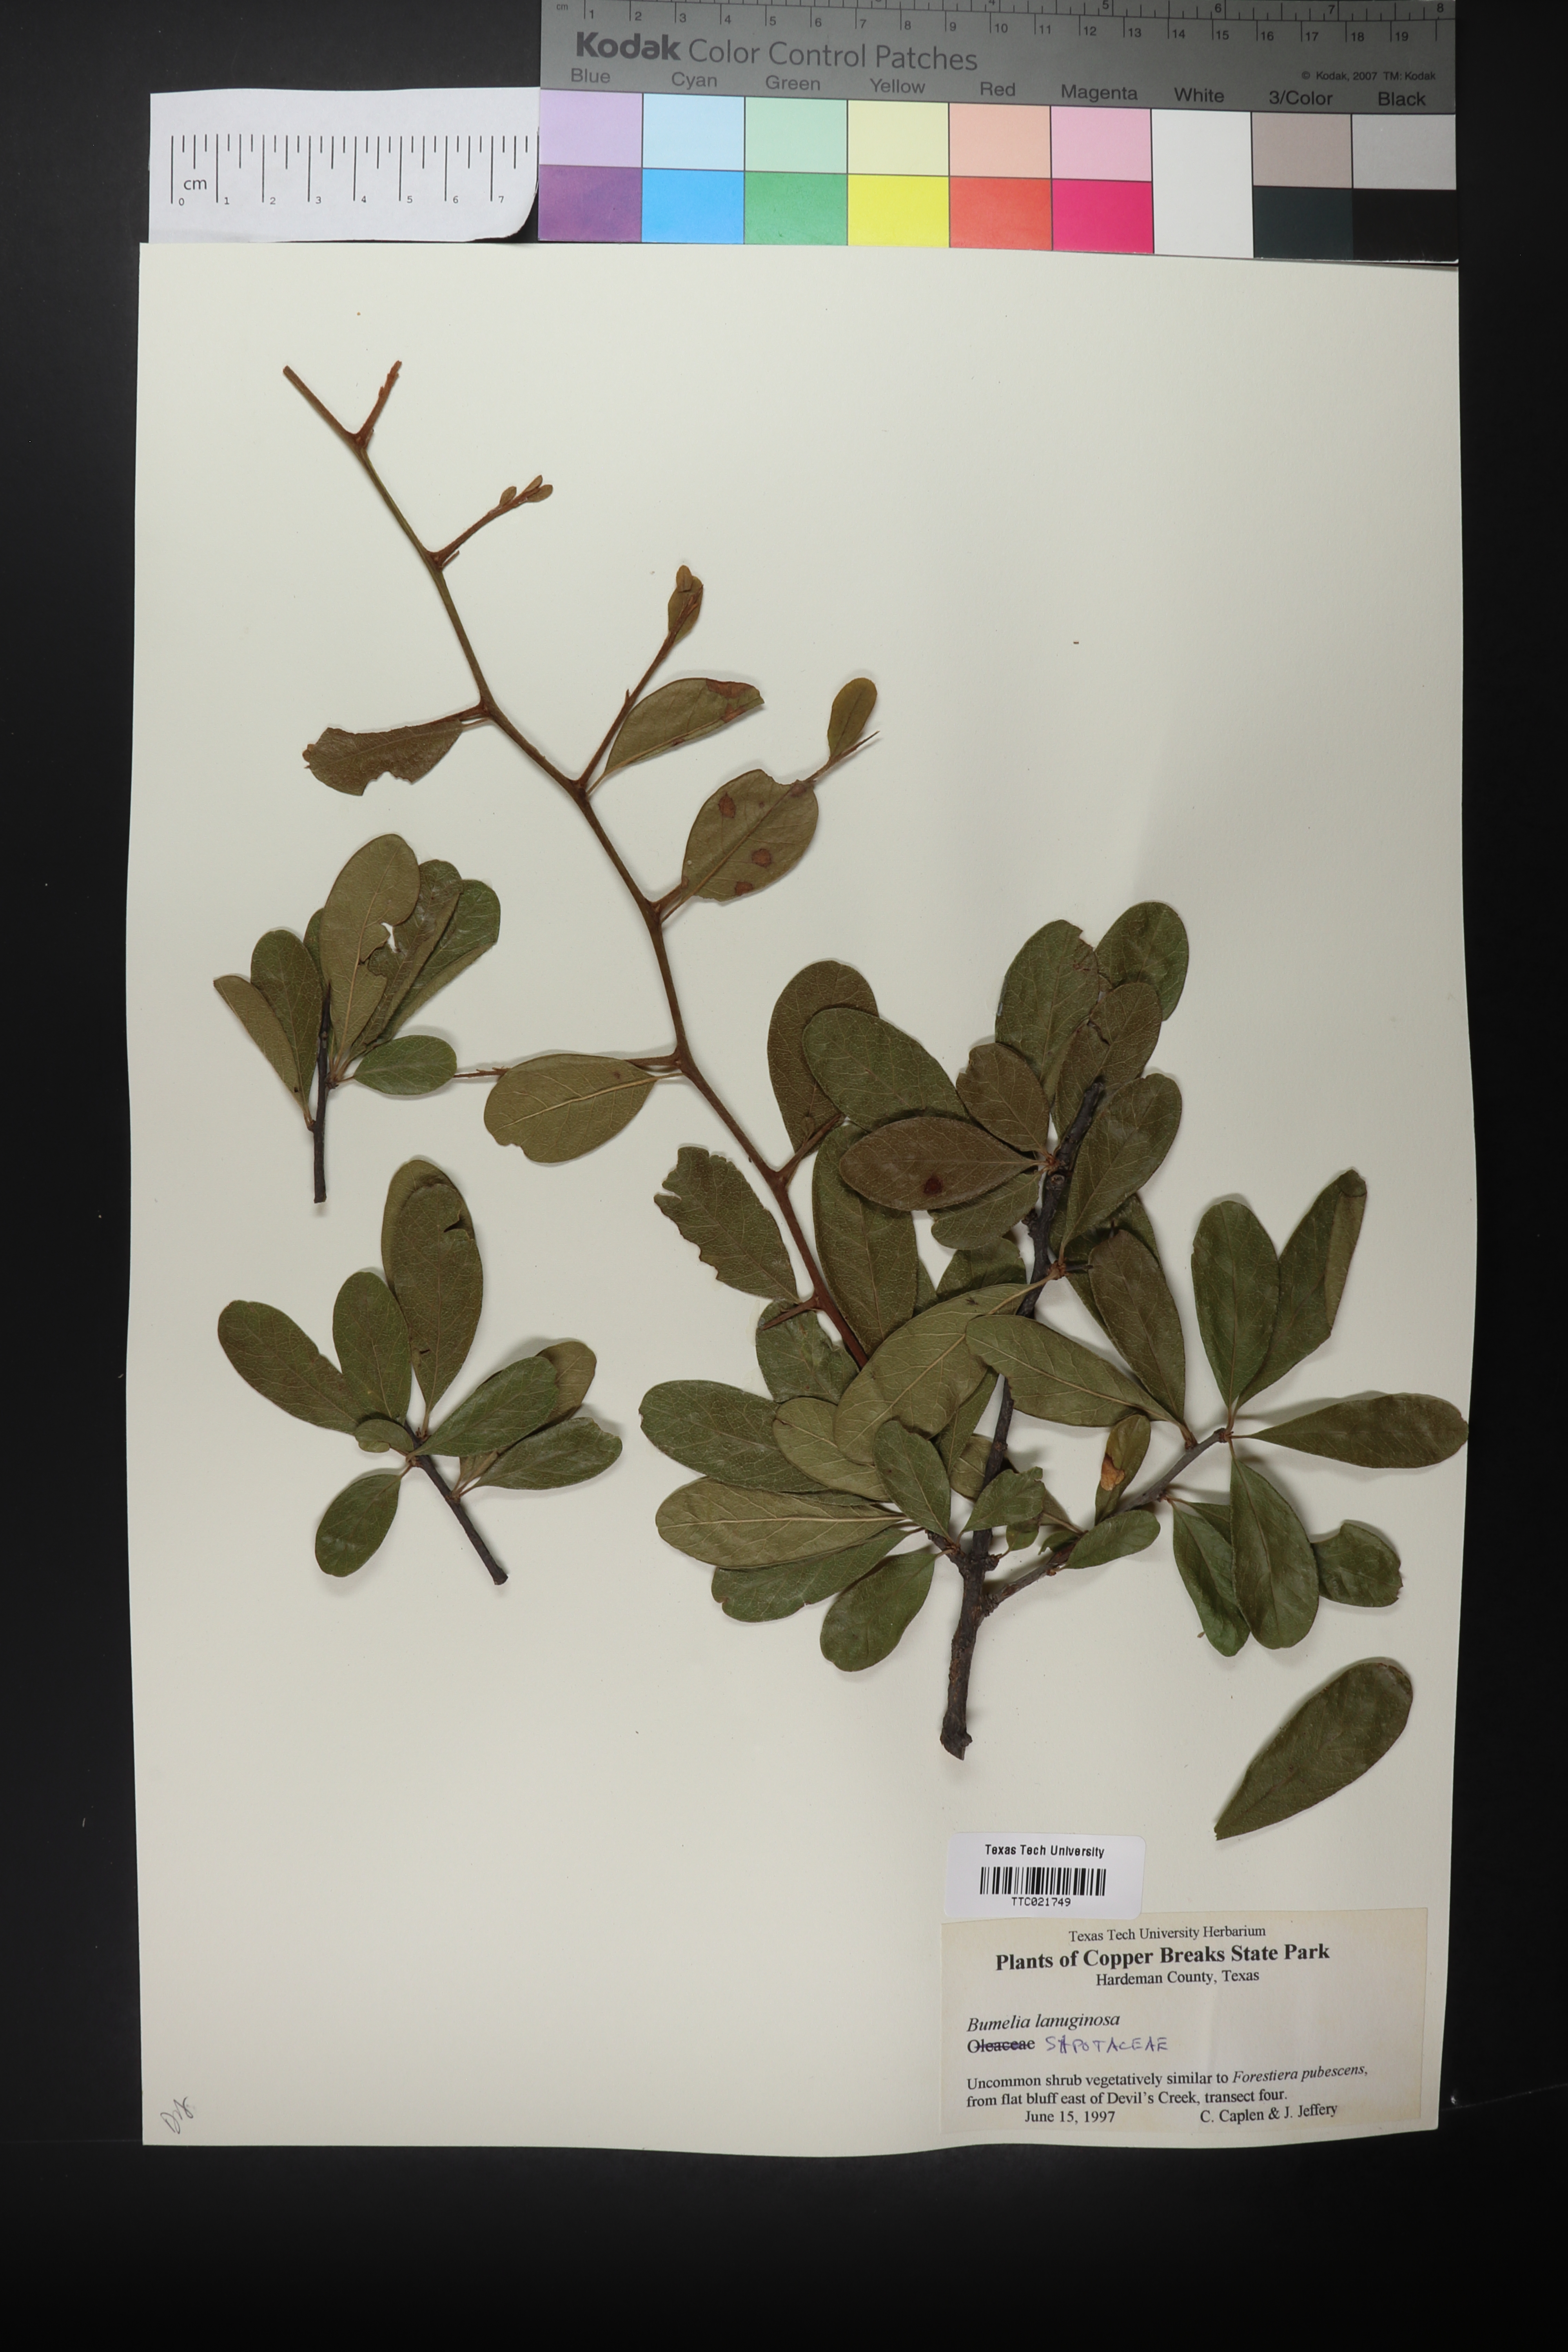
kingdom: Plantae
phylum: Tracheophyta
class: Magnoliopsida
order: Ericales
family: Sapotaceae
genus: Sideroxylon
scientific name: Sideroxylon lanuginosum
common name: Chittamwood
